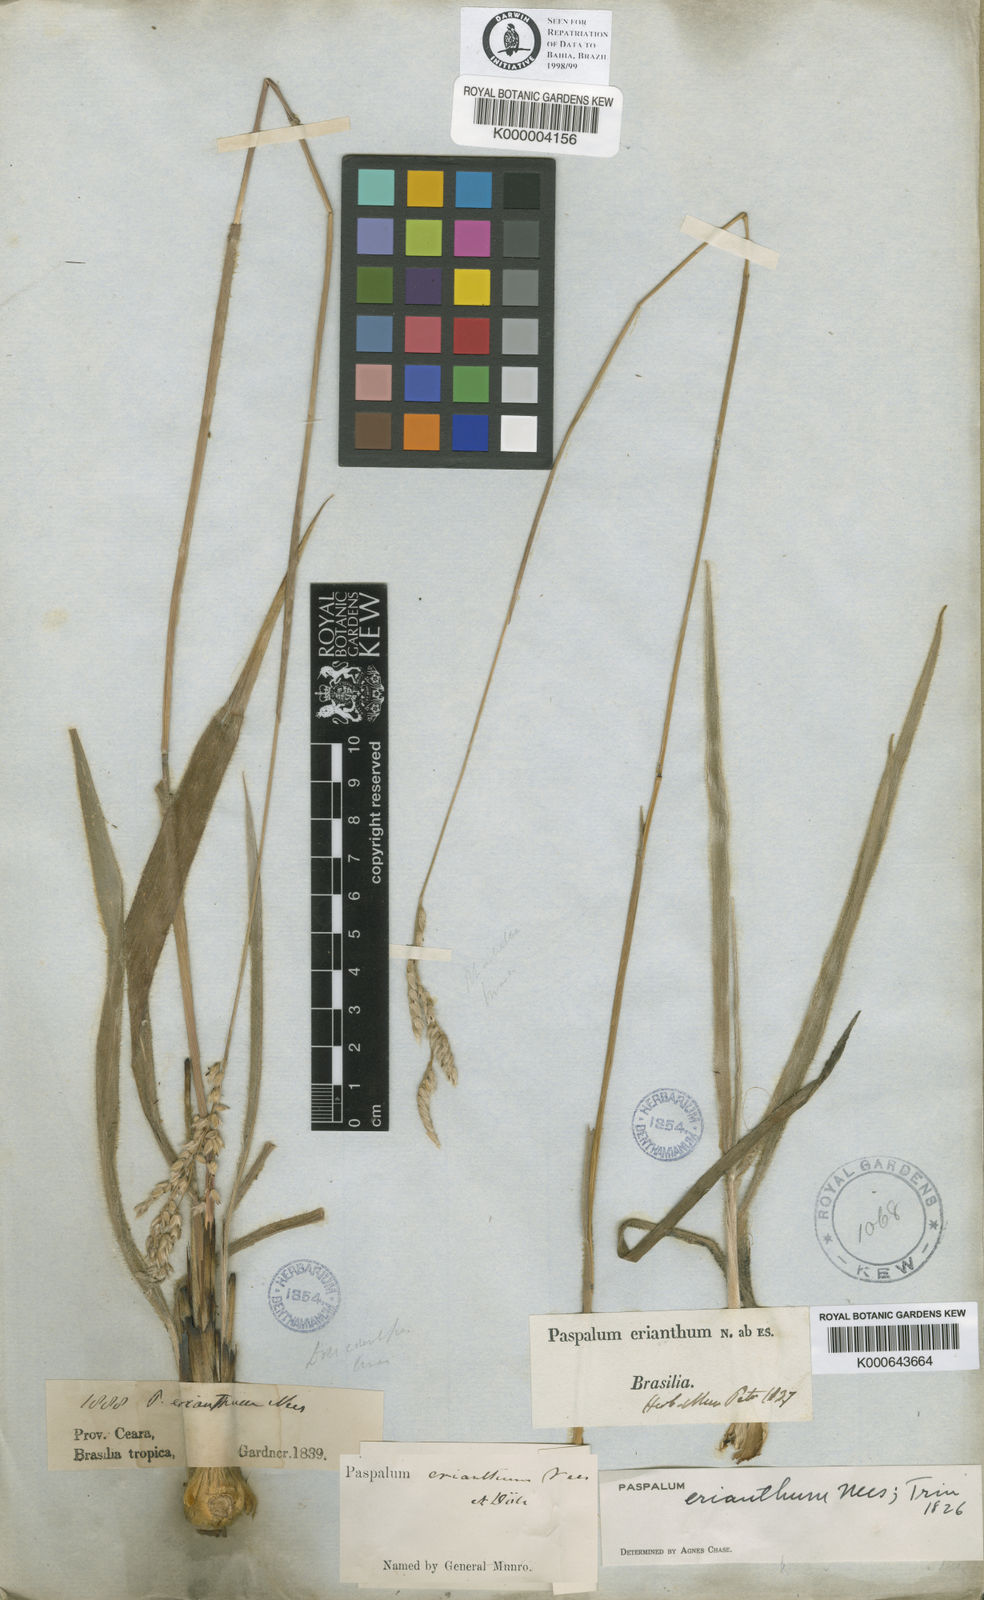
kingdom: Plantae
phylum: Tracheophyta
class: Liliopsida
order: Poales
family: Poaceae
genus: Paspalum
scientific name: Paspalum erianthum
